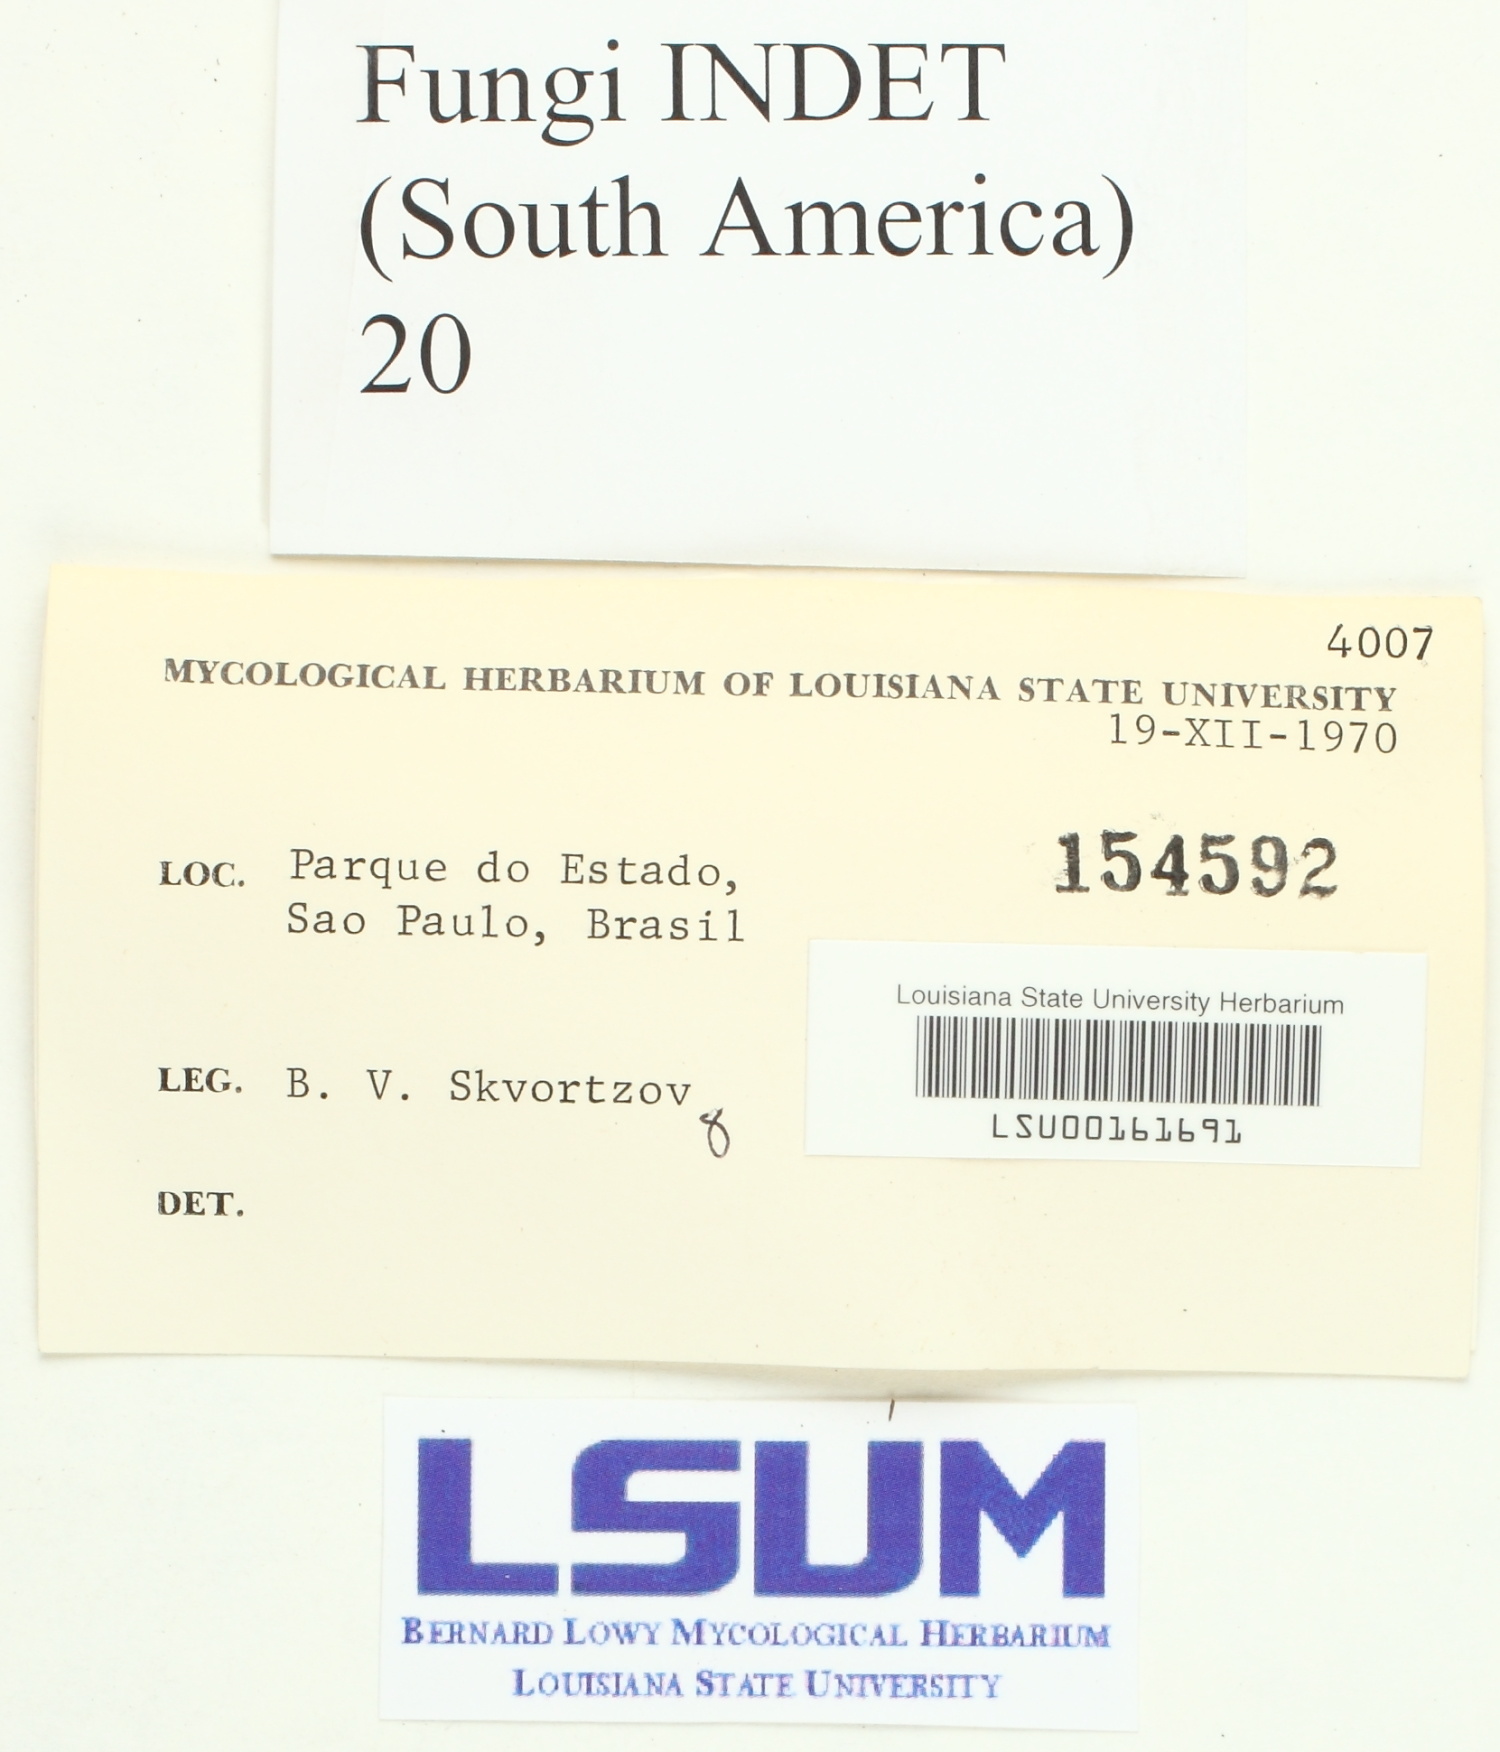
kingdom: Fungi
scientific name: Fungi
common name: Fungi
